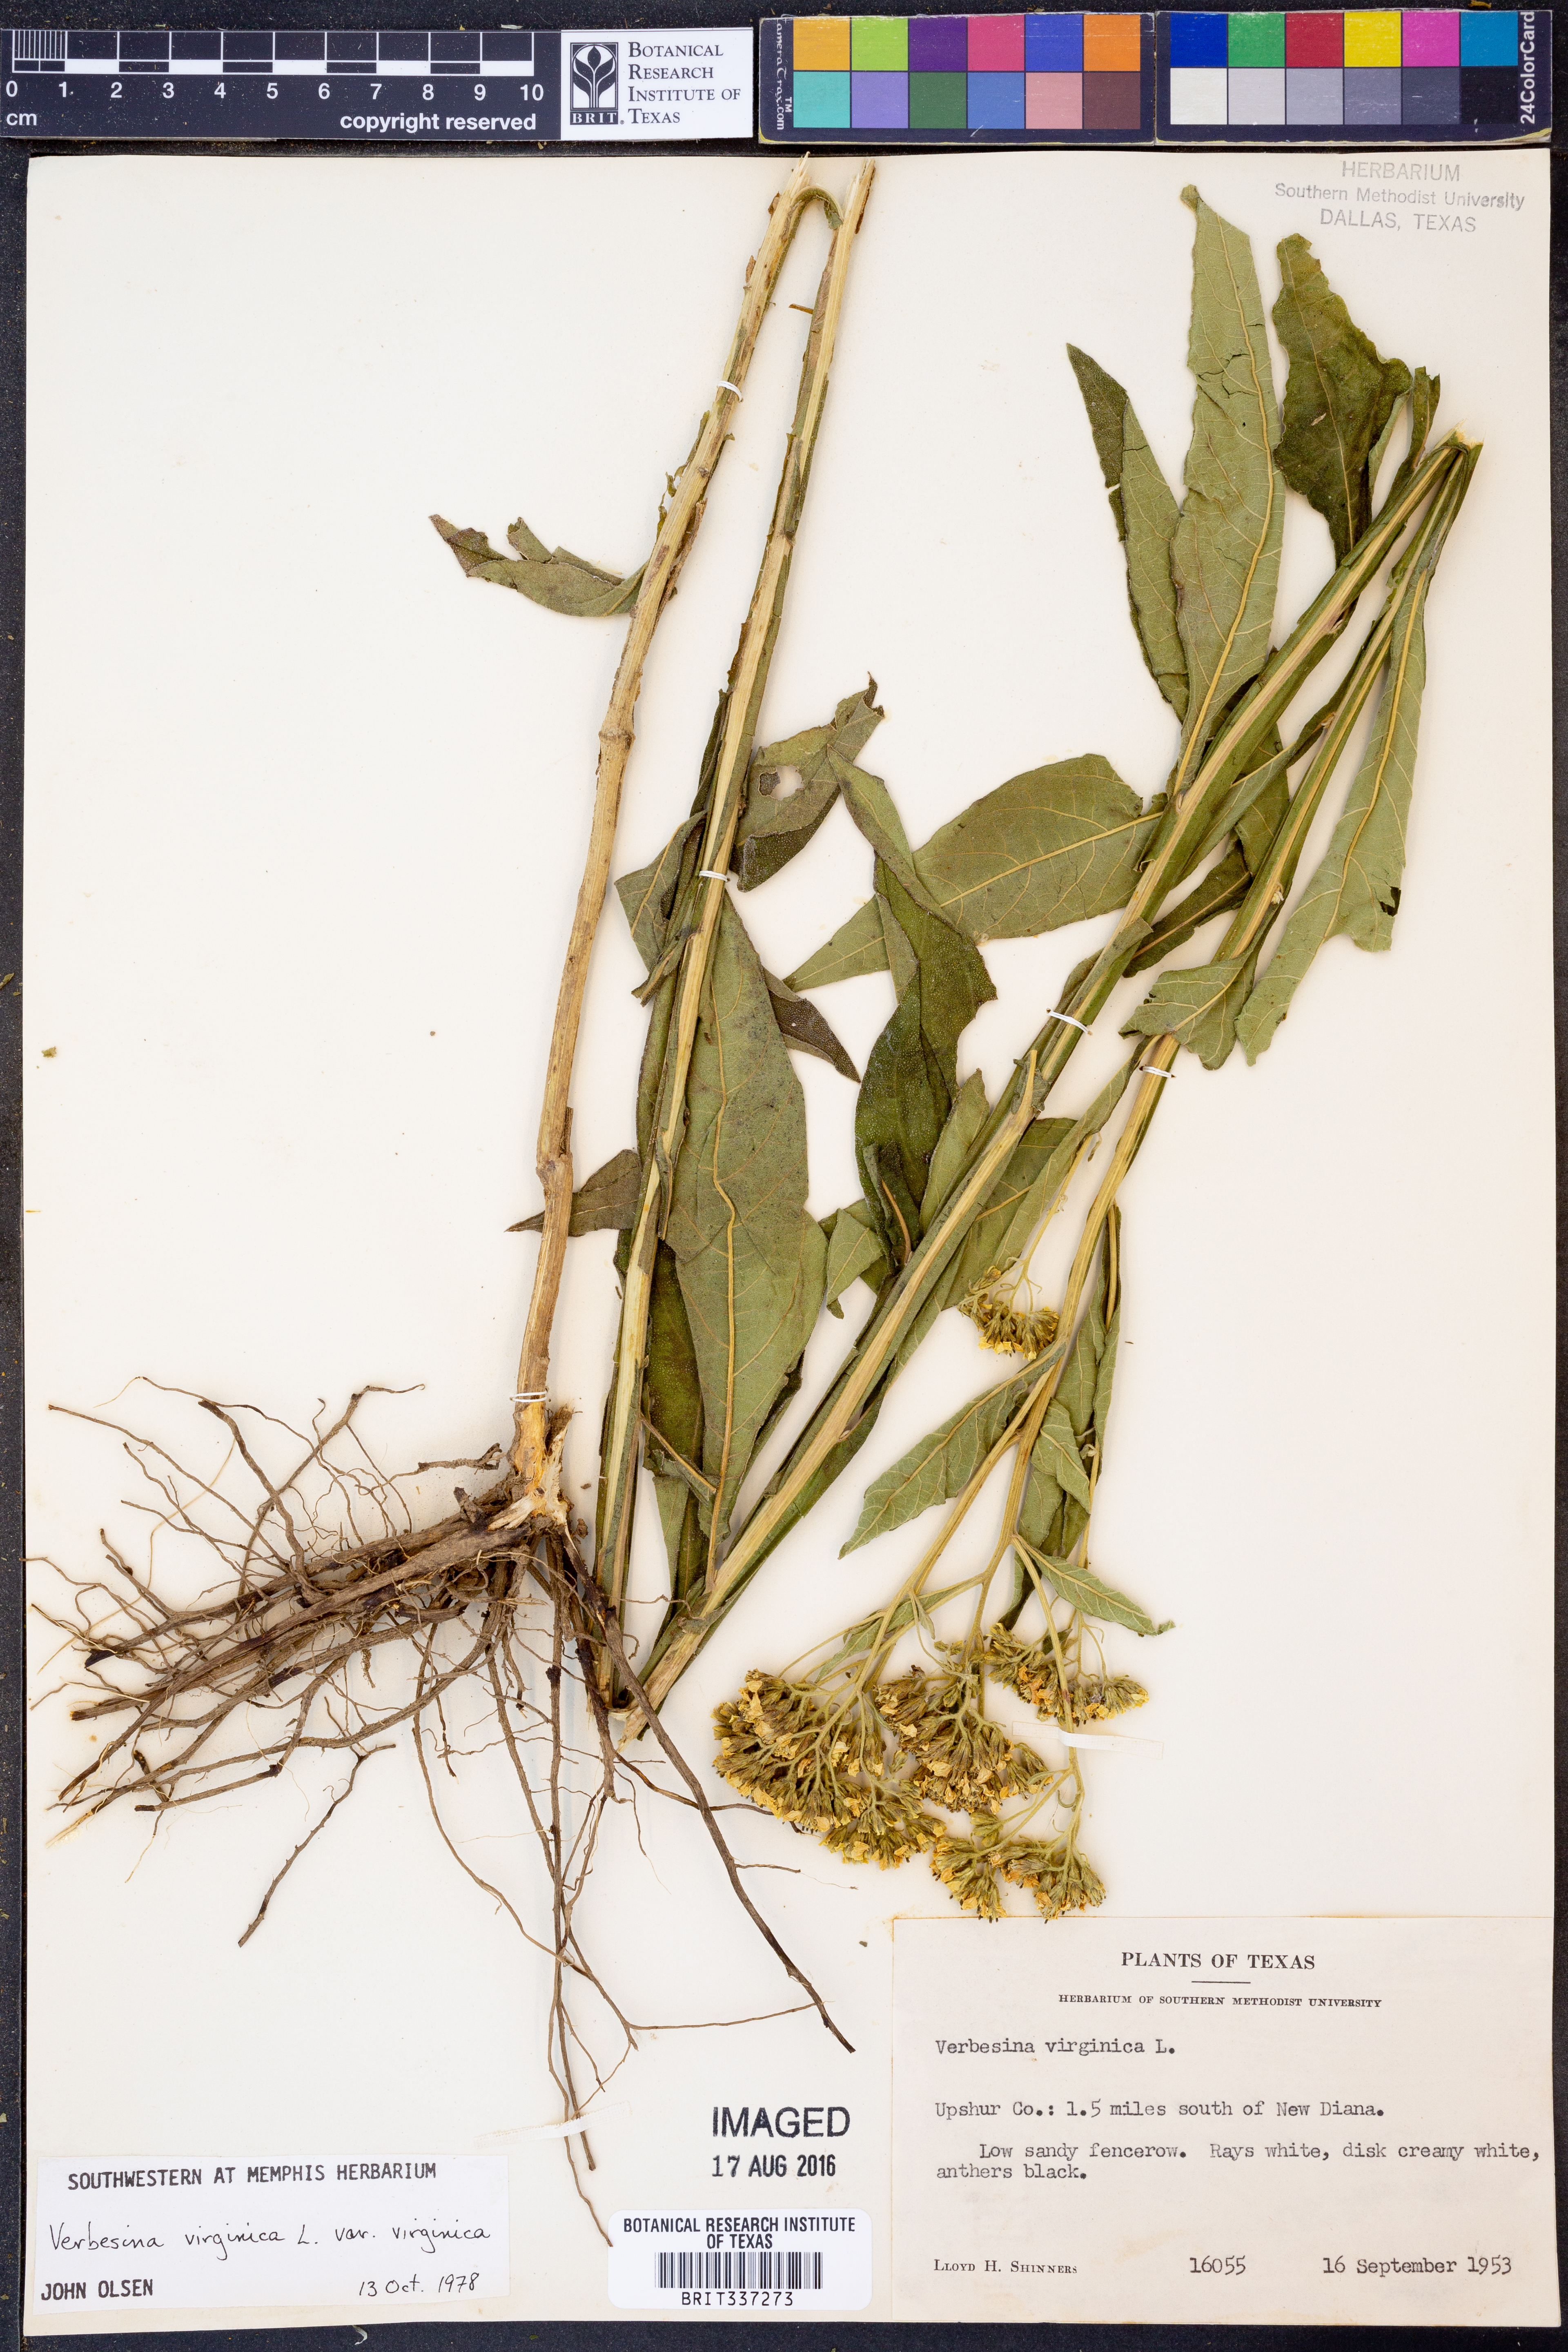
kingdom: Plantae
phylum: Tracheophyta
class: Magnoliopsida
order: Asterales
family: Asteraceae
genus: Verbesina
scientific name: Verbesina virginica
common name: Frostweed
